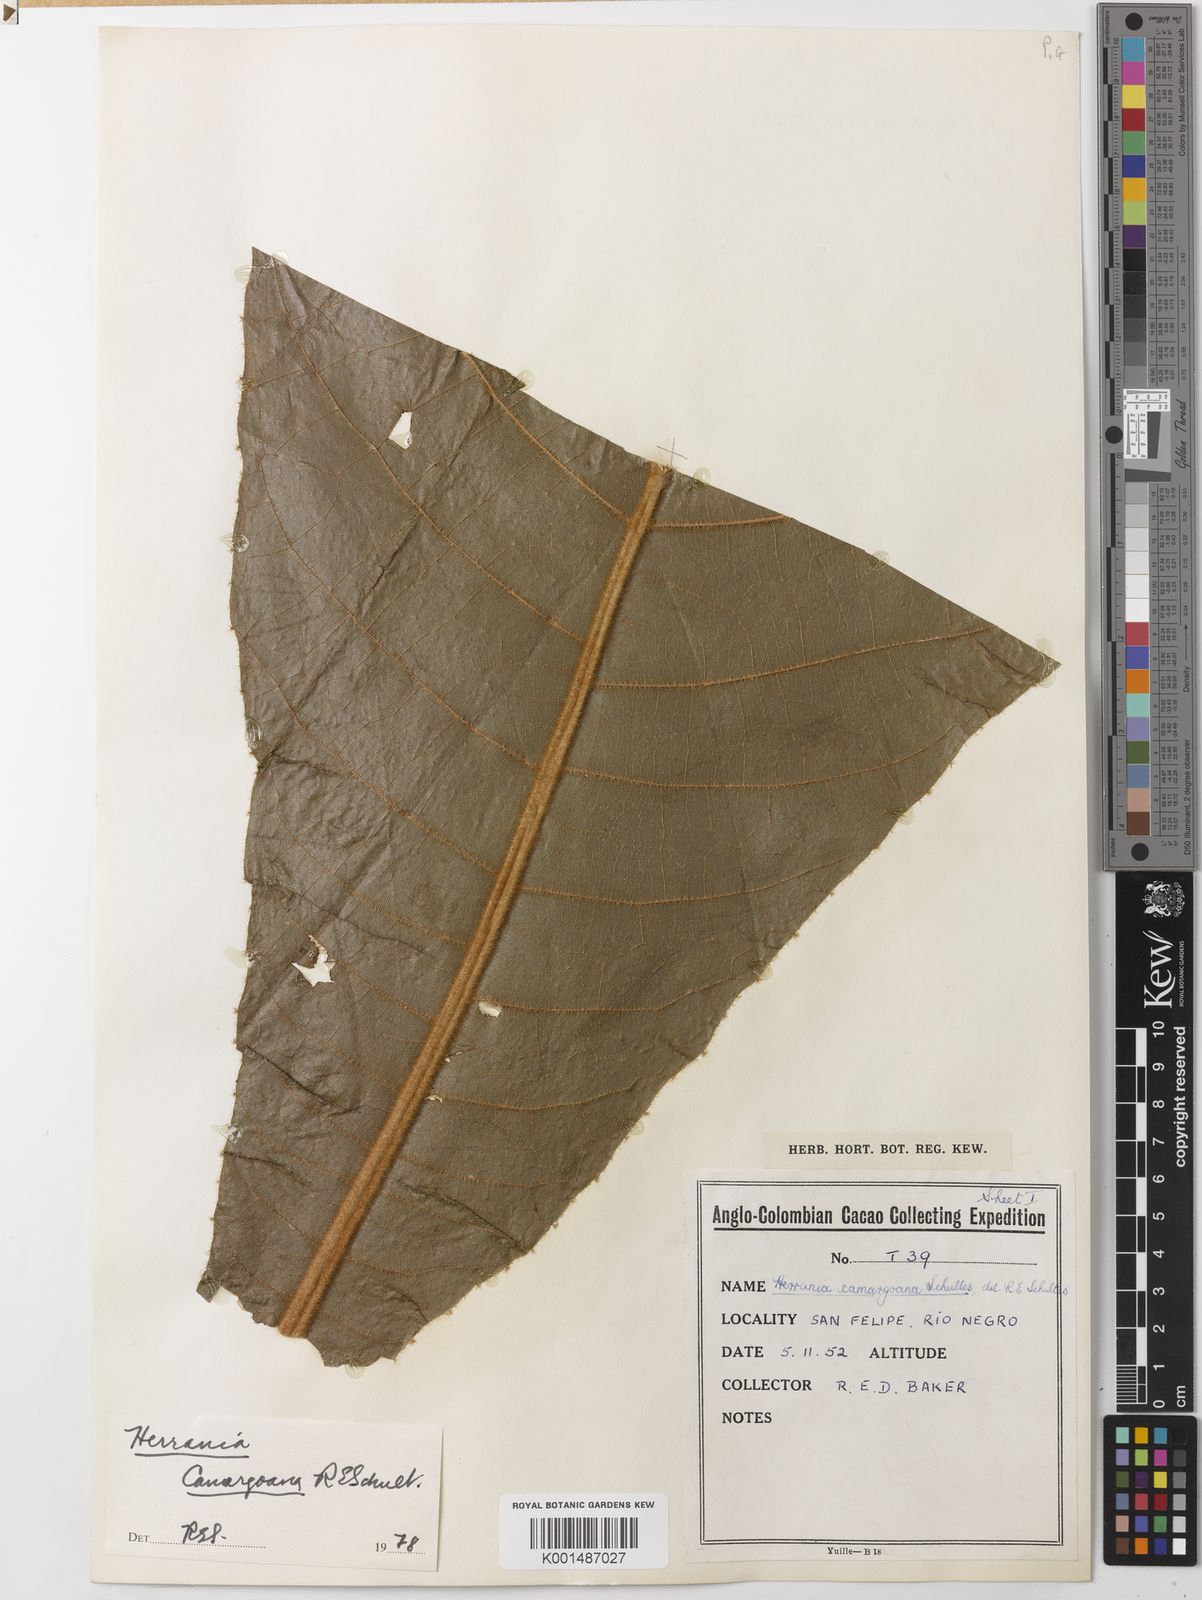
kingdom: Plantae
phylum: Tracheophyta
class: Magnoliopsida
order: Malvales
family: Malvaceae
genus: Herrania
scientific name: Herrania camargoana
